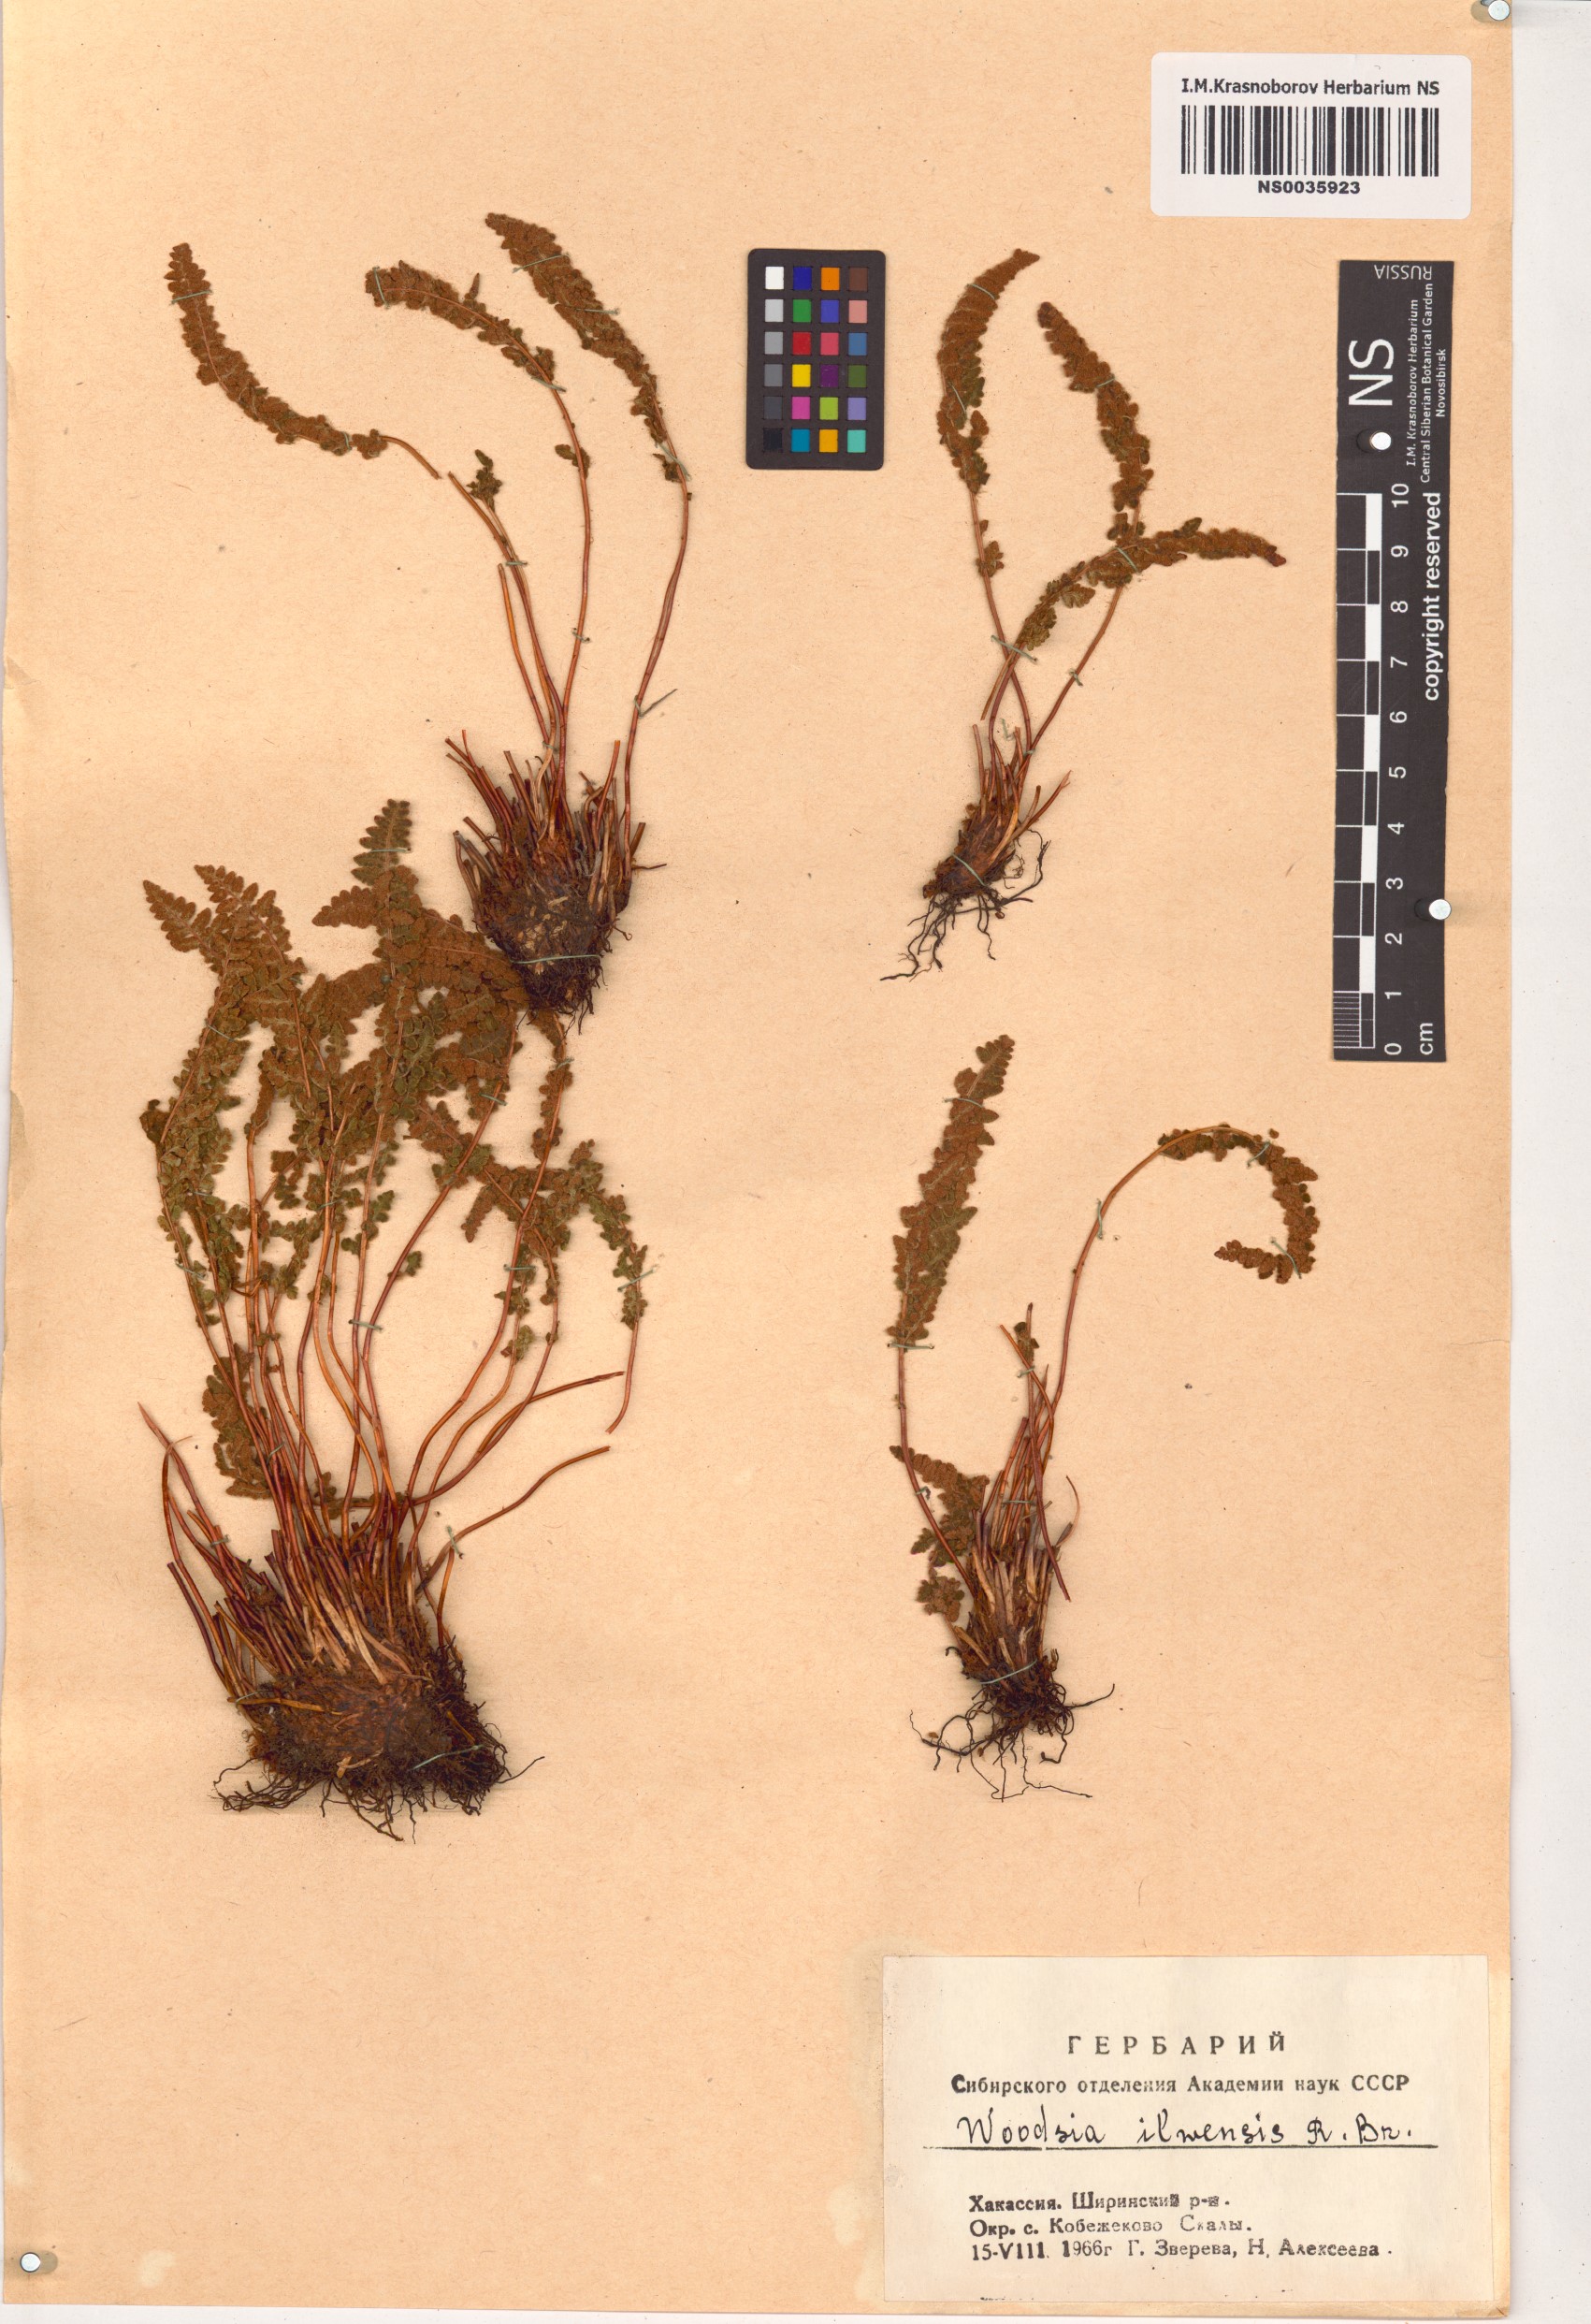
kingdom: Plantae
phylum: Tracheophyta
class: Polypodiopsida
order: Polypodiales
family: Woodsiaceae
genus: Woodsia
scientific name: Woodsia ilvensis
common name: Fragrant woodsia
